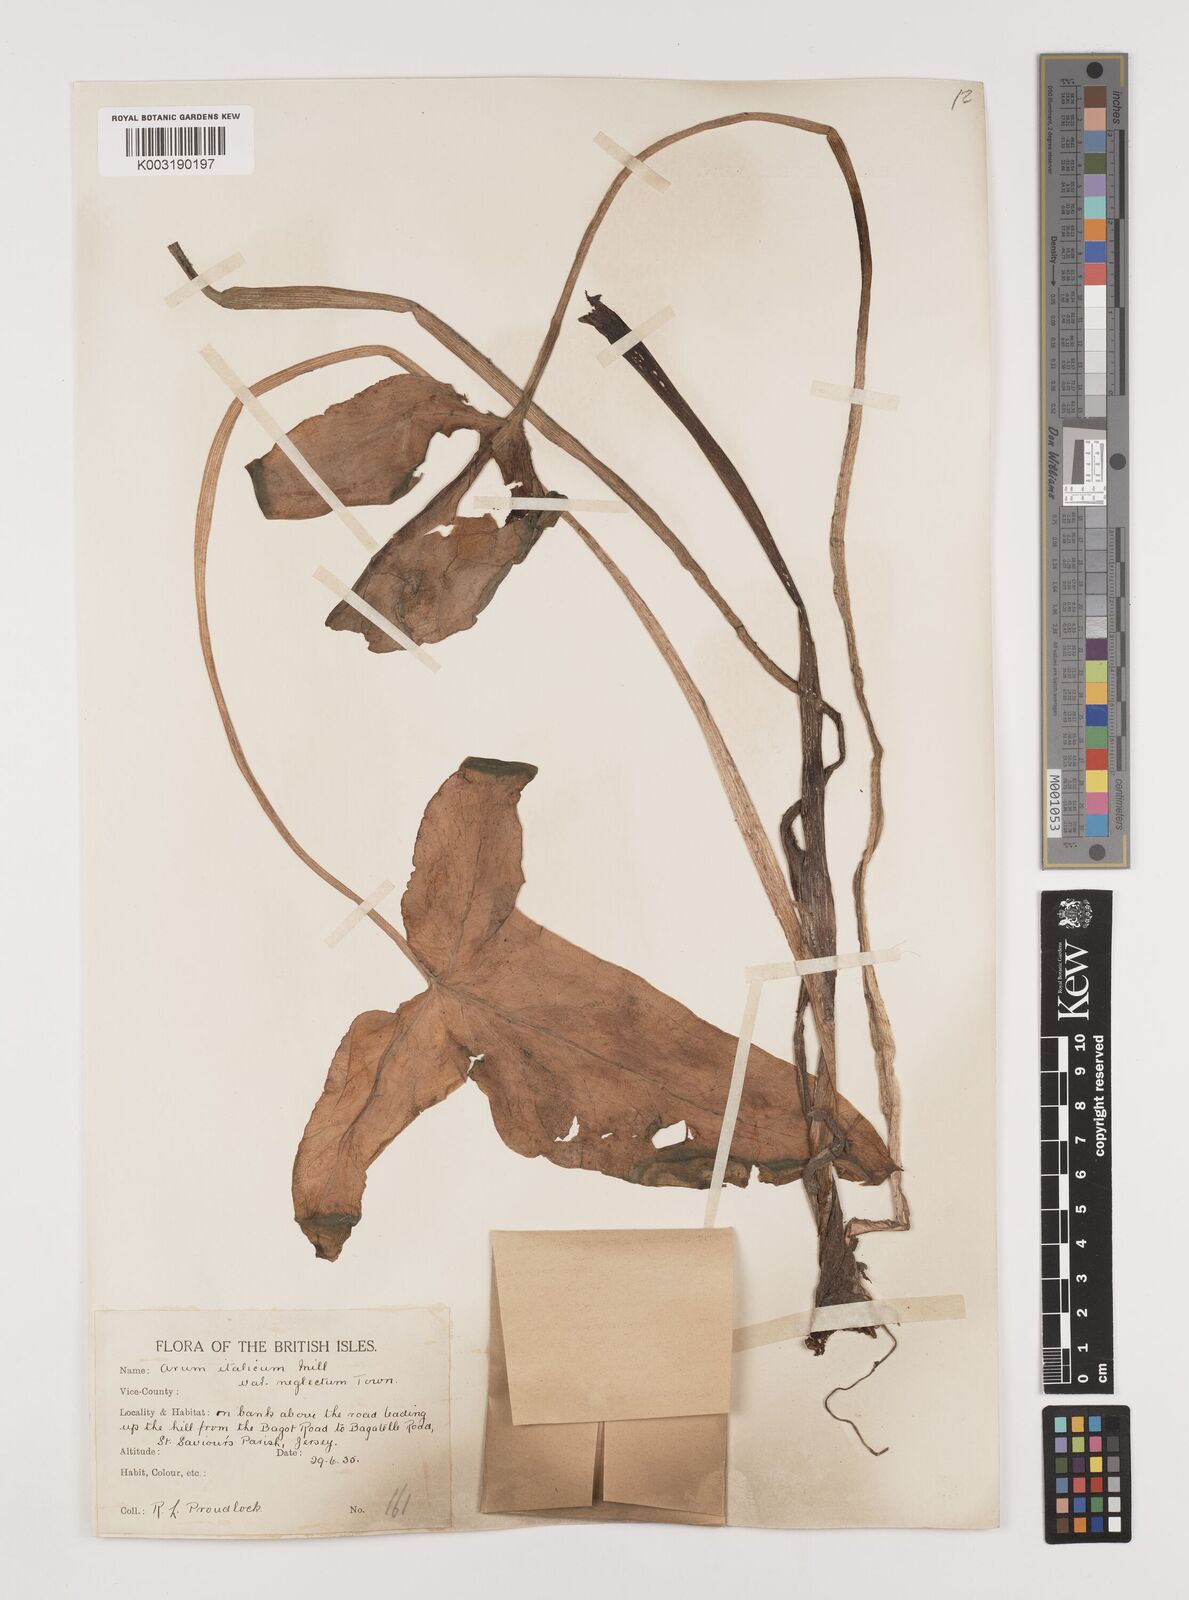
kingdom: Plantae
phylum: Tracheophyta
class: Liliopsida
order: Alismatales
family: Araceae
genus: Arum
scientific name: Arum italicum
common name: Italian lords-and-ladies
